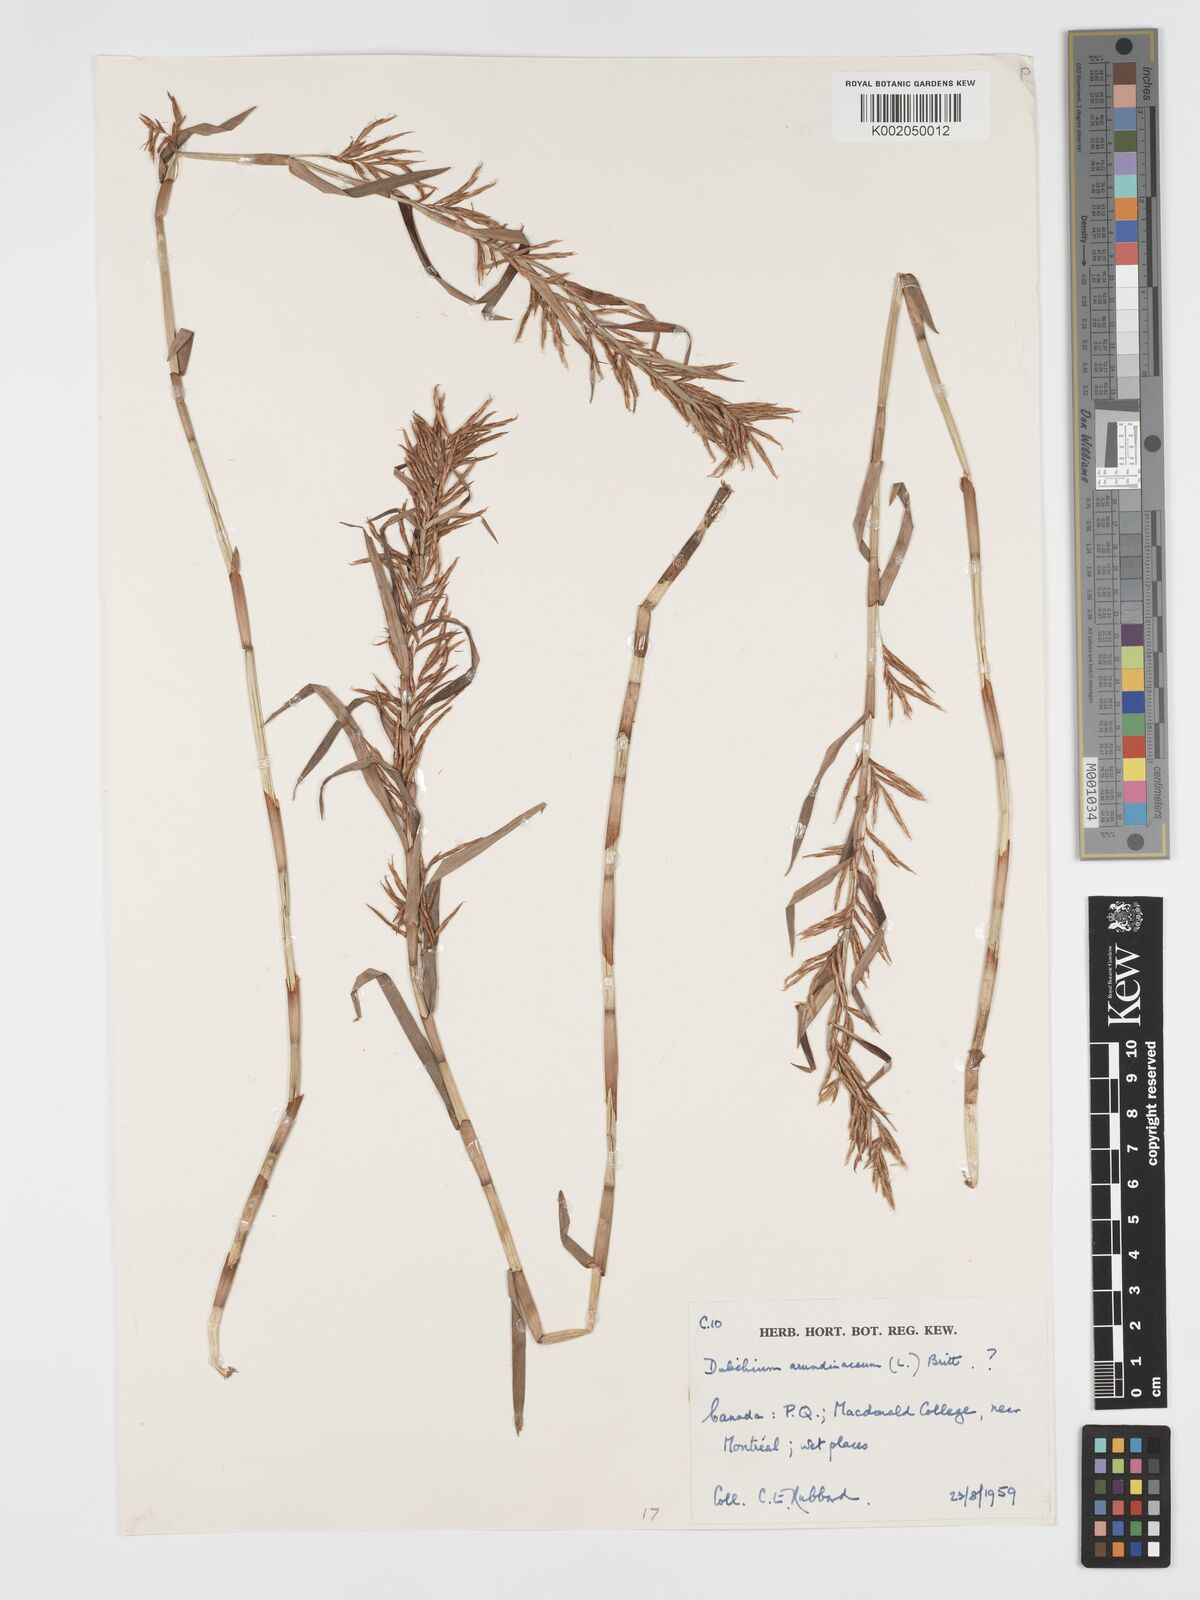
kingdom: Plantae
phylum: Tracheophyta
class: Liliopsida
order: Poales
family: Cyperaceae
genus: Dulichium
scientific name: Dulichium arundinaceum
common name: Three-way sedge
